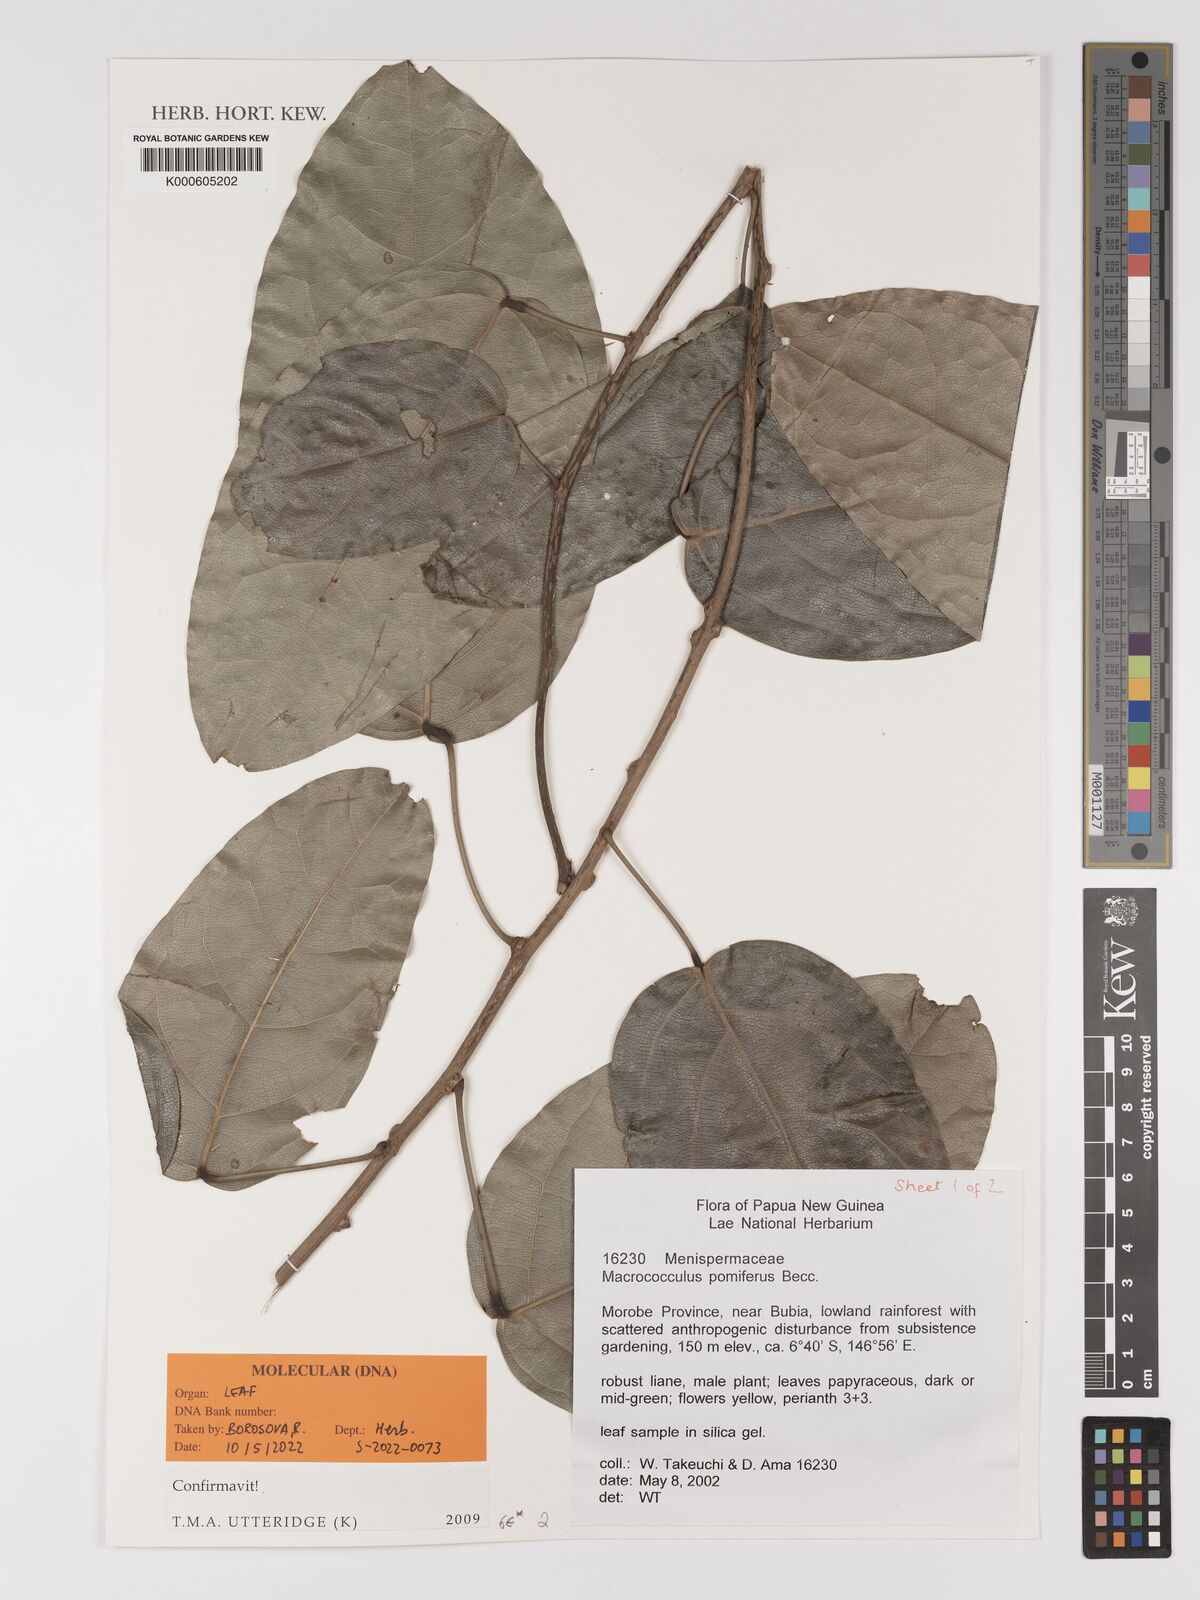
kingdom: Plantae
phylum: Tracheophyta
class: Magnoliopsida
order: Ranunculales
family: Menispermaceae
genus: Macrococculus
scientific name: Macrococculus
